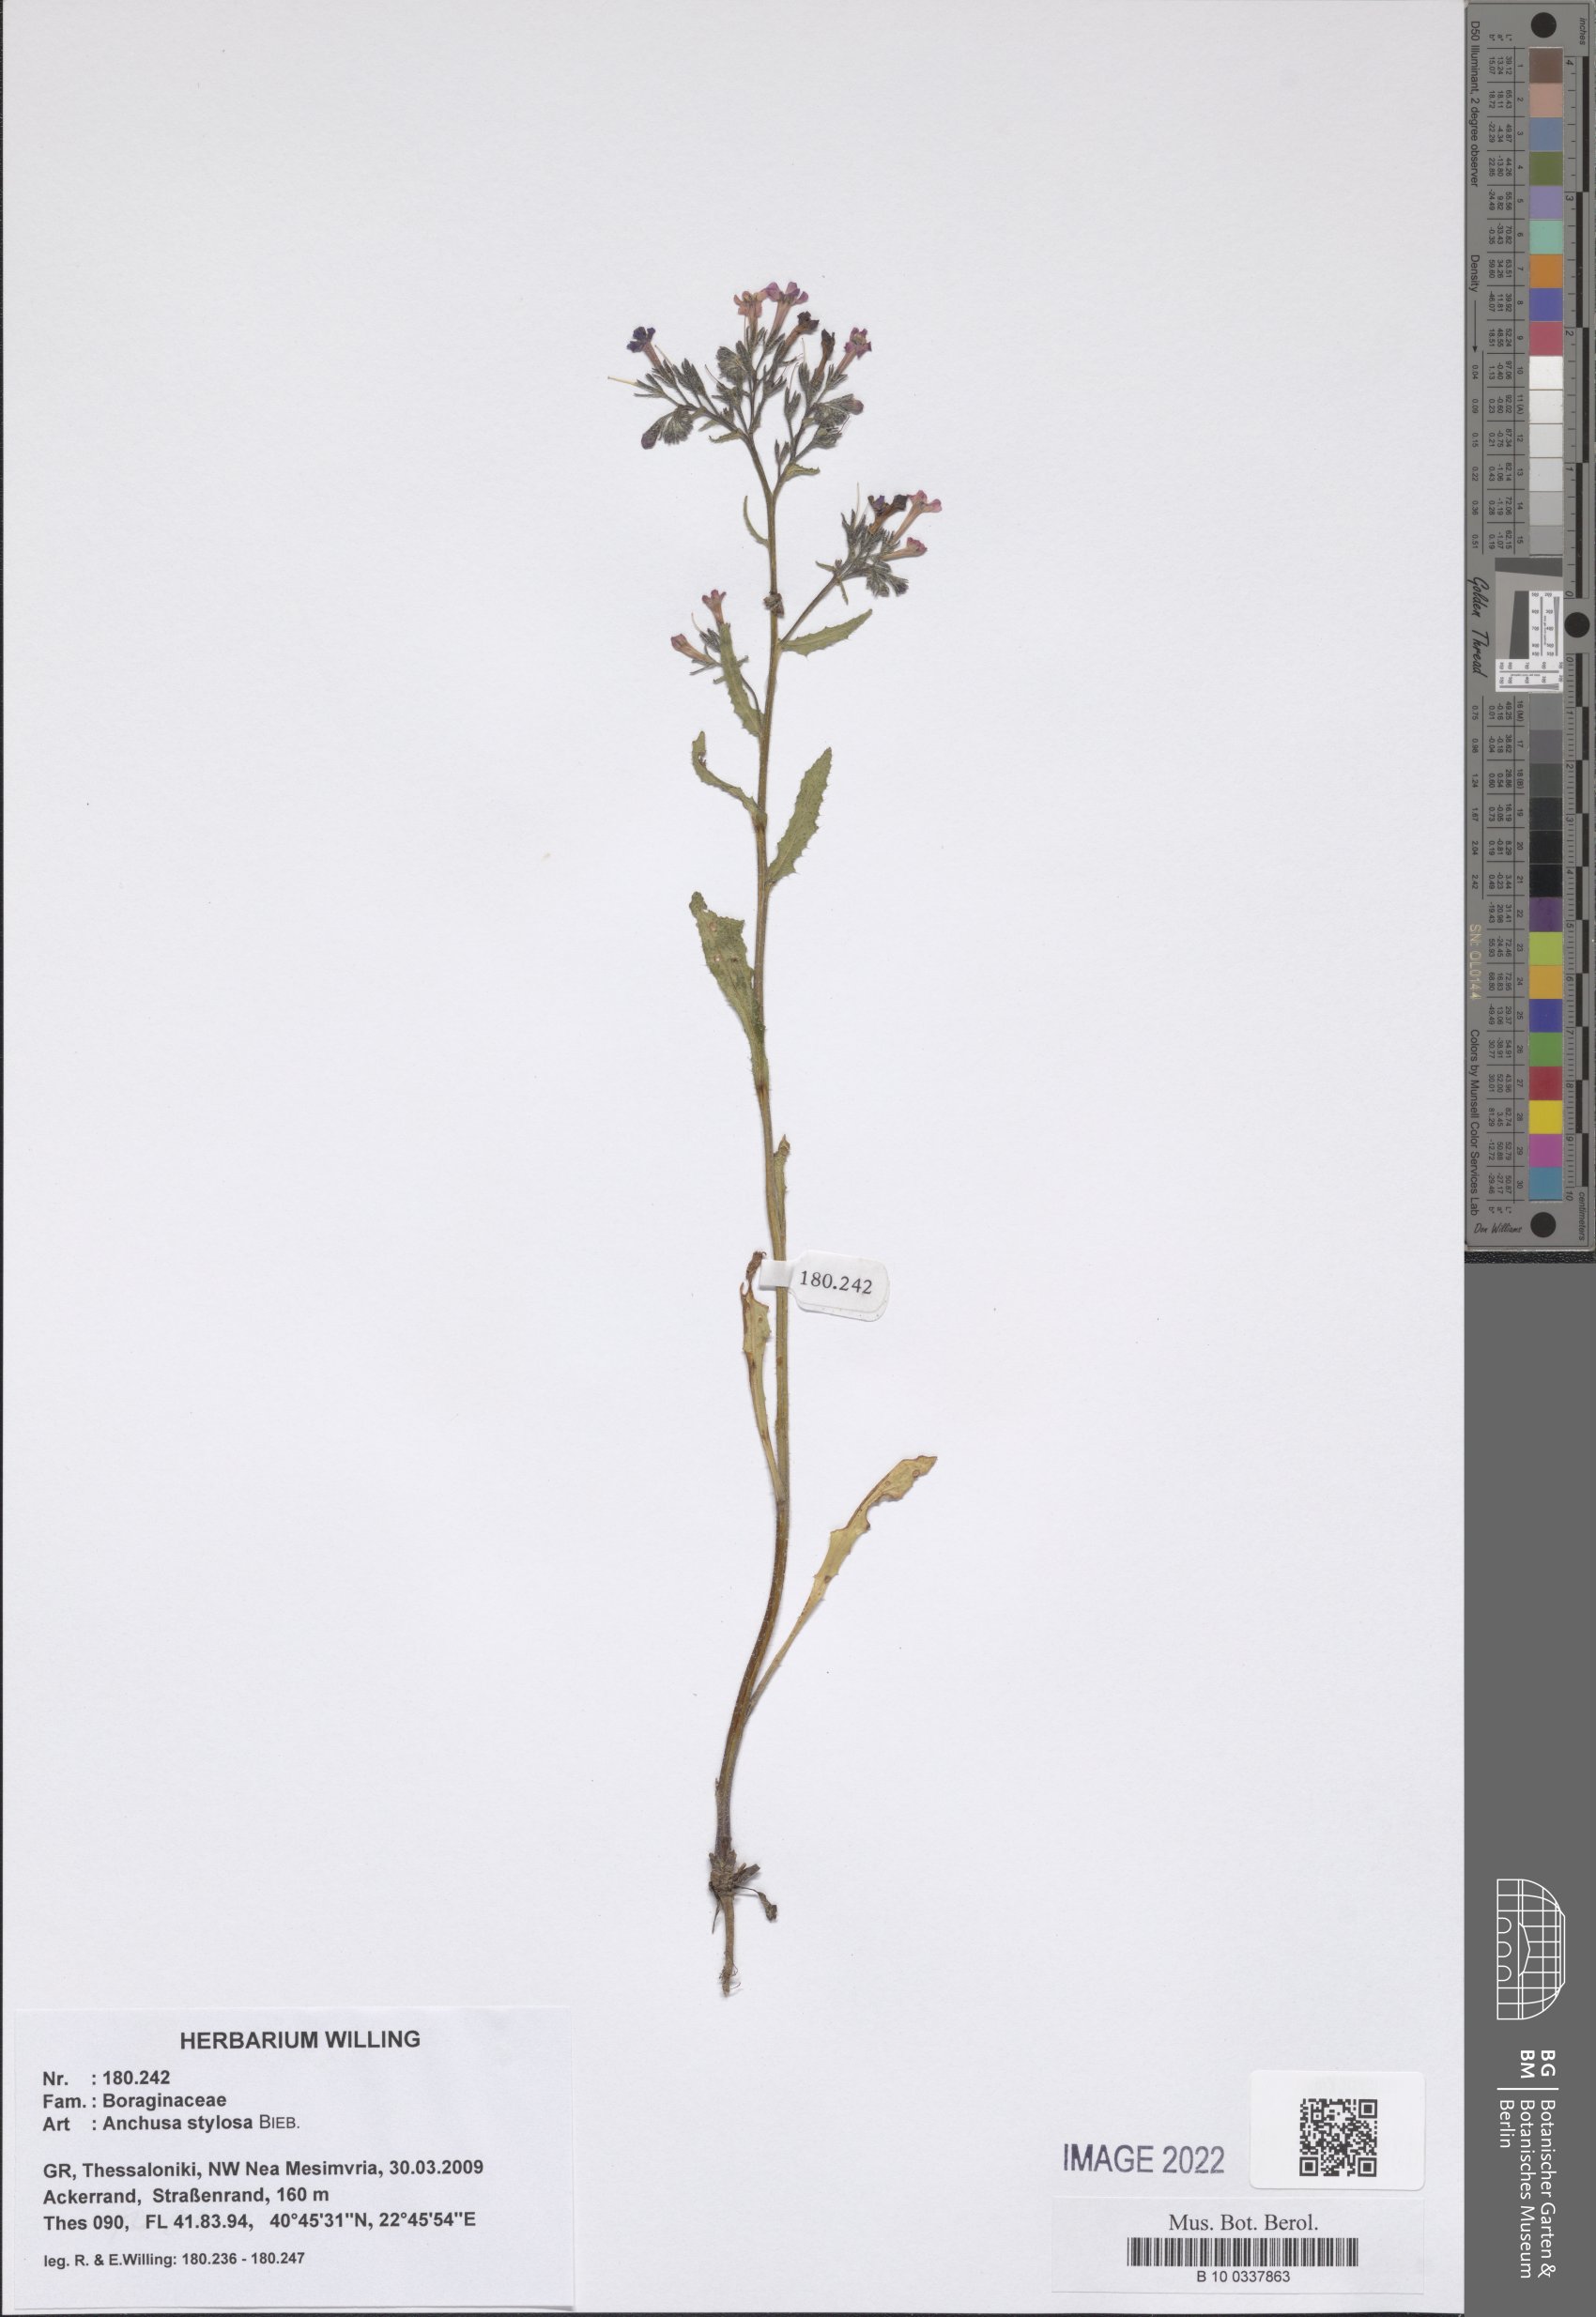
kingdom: Plantae
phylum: Tracheophyta
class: Magnoliopsida
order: Boraginales
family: Boraginaceae
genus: Anchusa
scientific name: Anchusa stylosa
